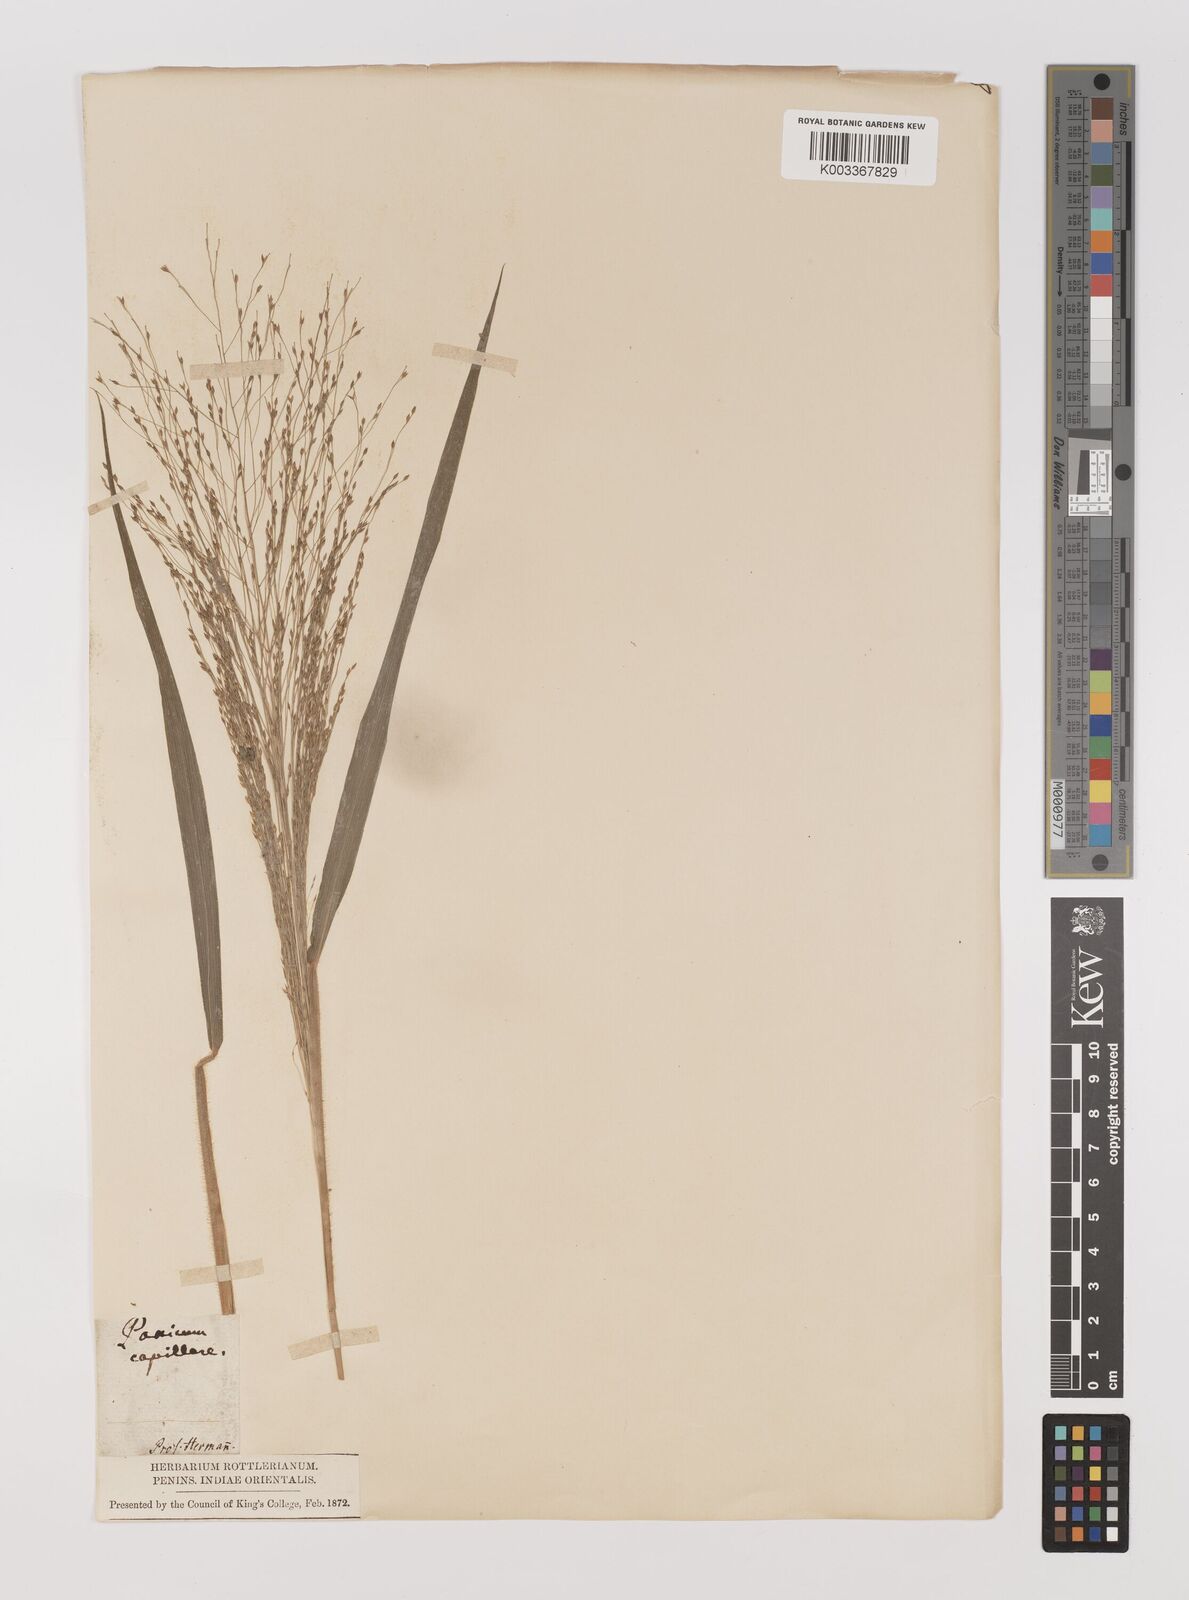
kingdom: Plantae
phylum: Tracheophyta
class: Liliopsida
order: Poales
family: Poaceae
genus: Panicum
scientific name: Panicum capillare
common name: Witch-grass
